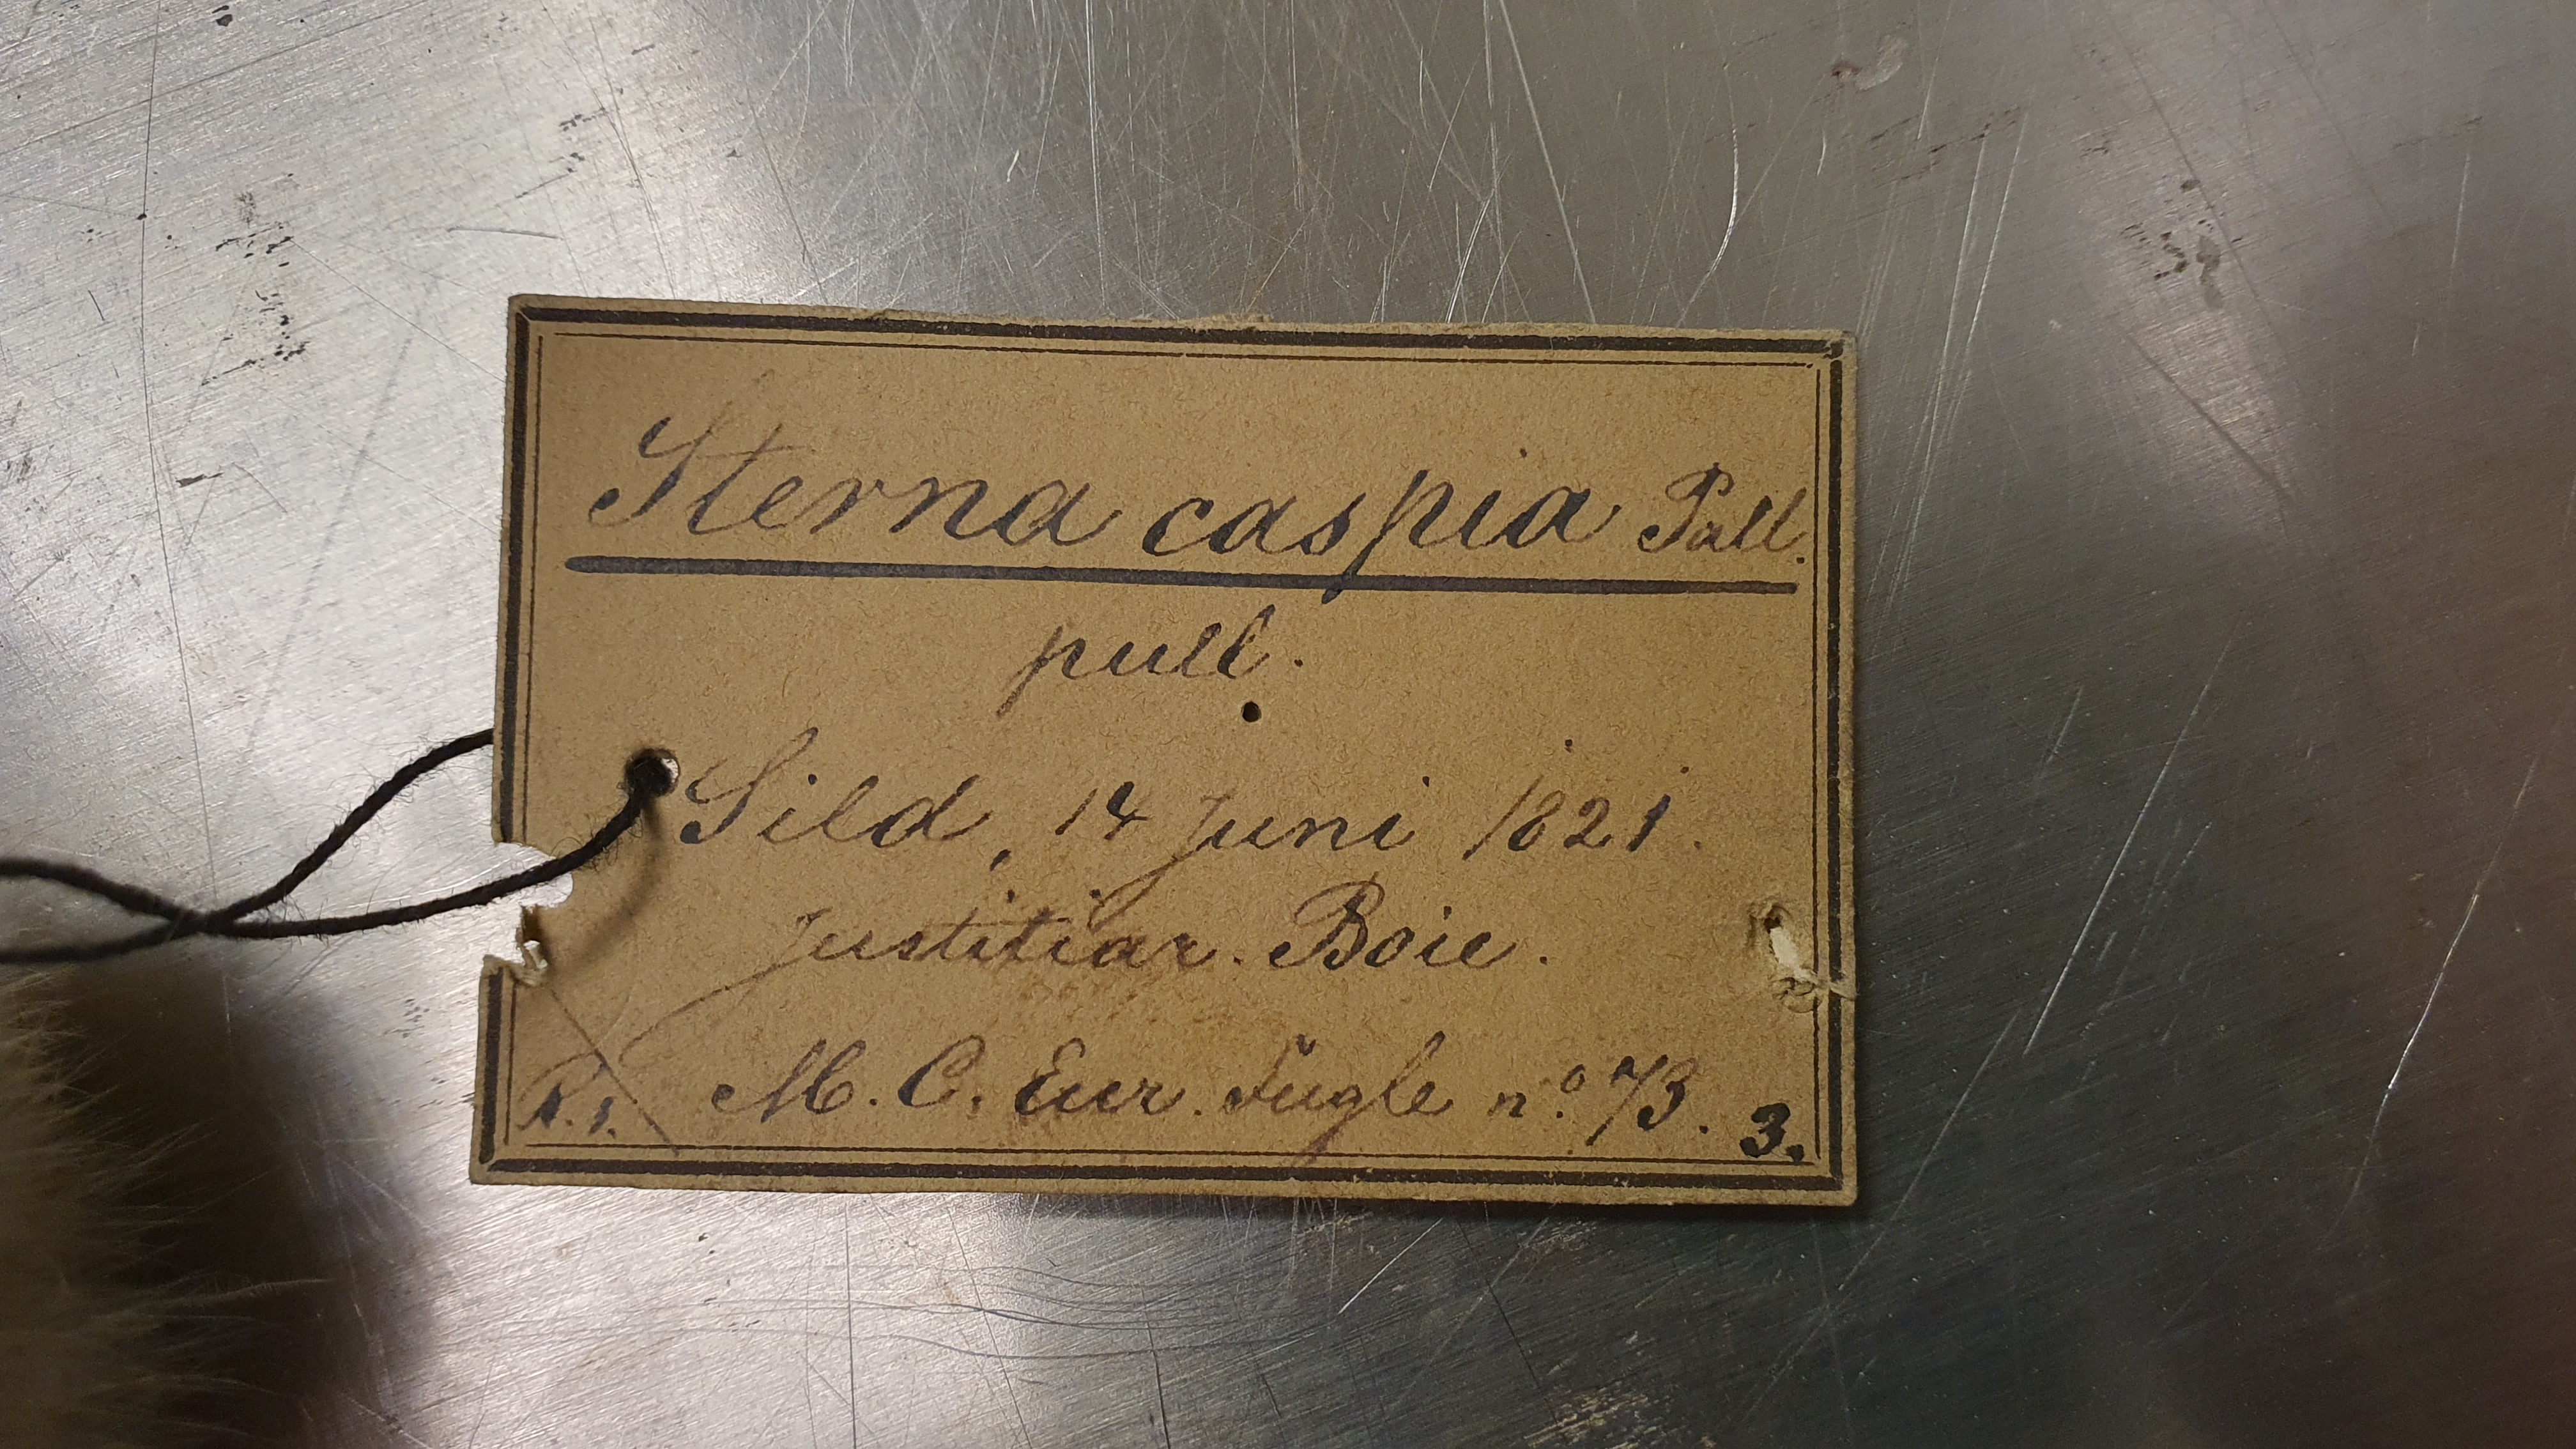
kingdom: Animalia
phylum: Chordata
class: Aves
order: Charadriiformes
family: Laridae
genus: Hydroprogne
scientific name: Hydroprogne caspia
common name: Caspian tern
